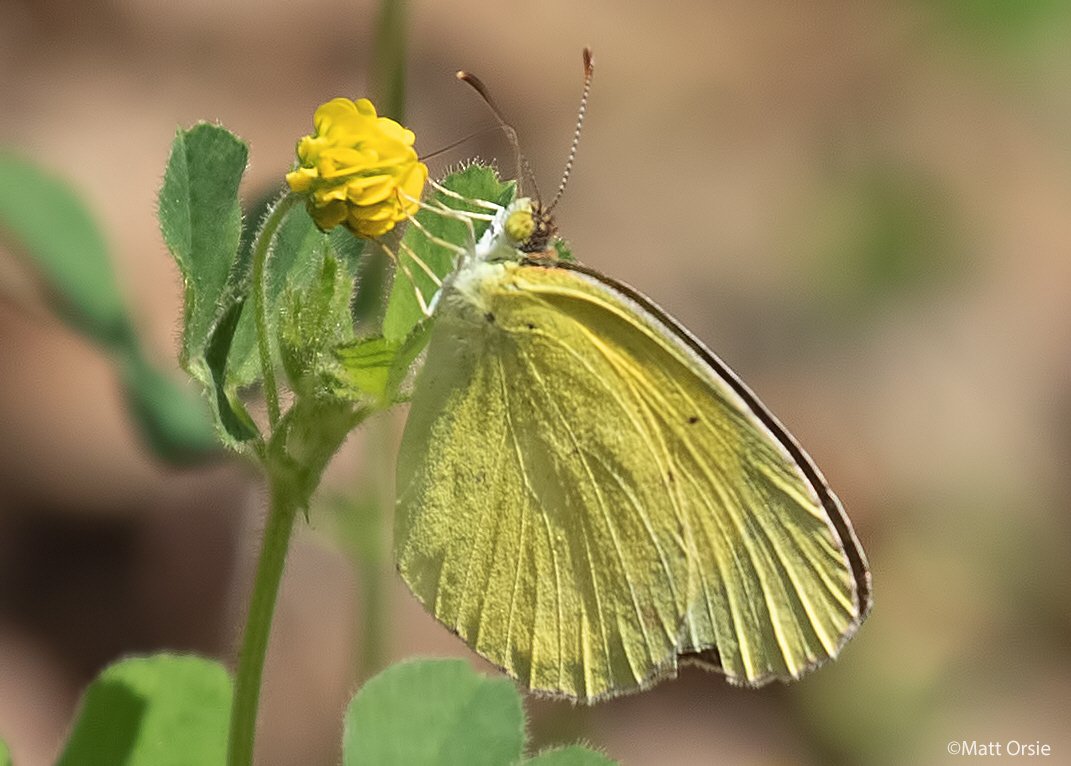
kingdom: Animalia
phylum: Arthropoda
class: Insecta
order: Lepidoptera
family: Pieridae
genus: Pyrisitia
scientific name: Pyrisitia lisa
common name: Little Yellow
